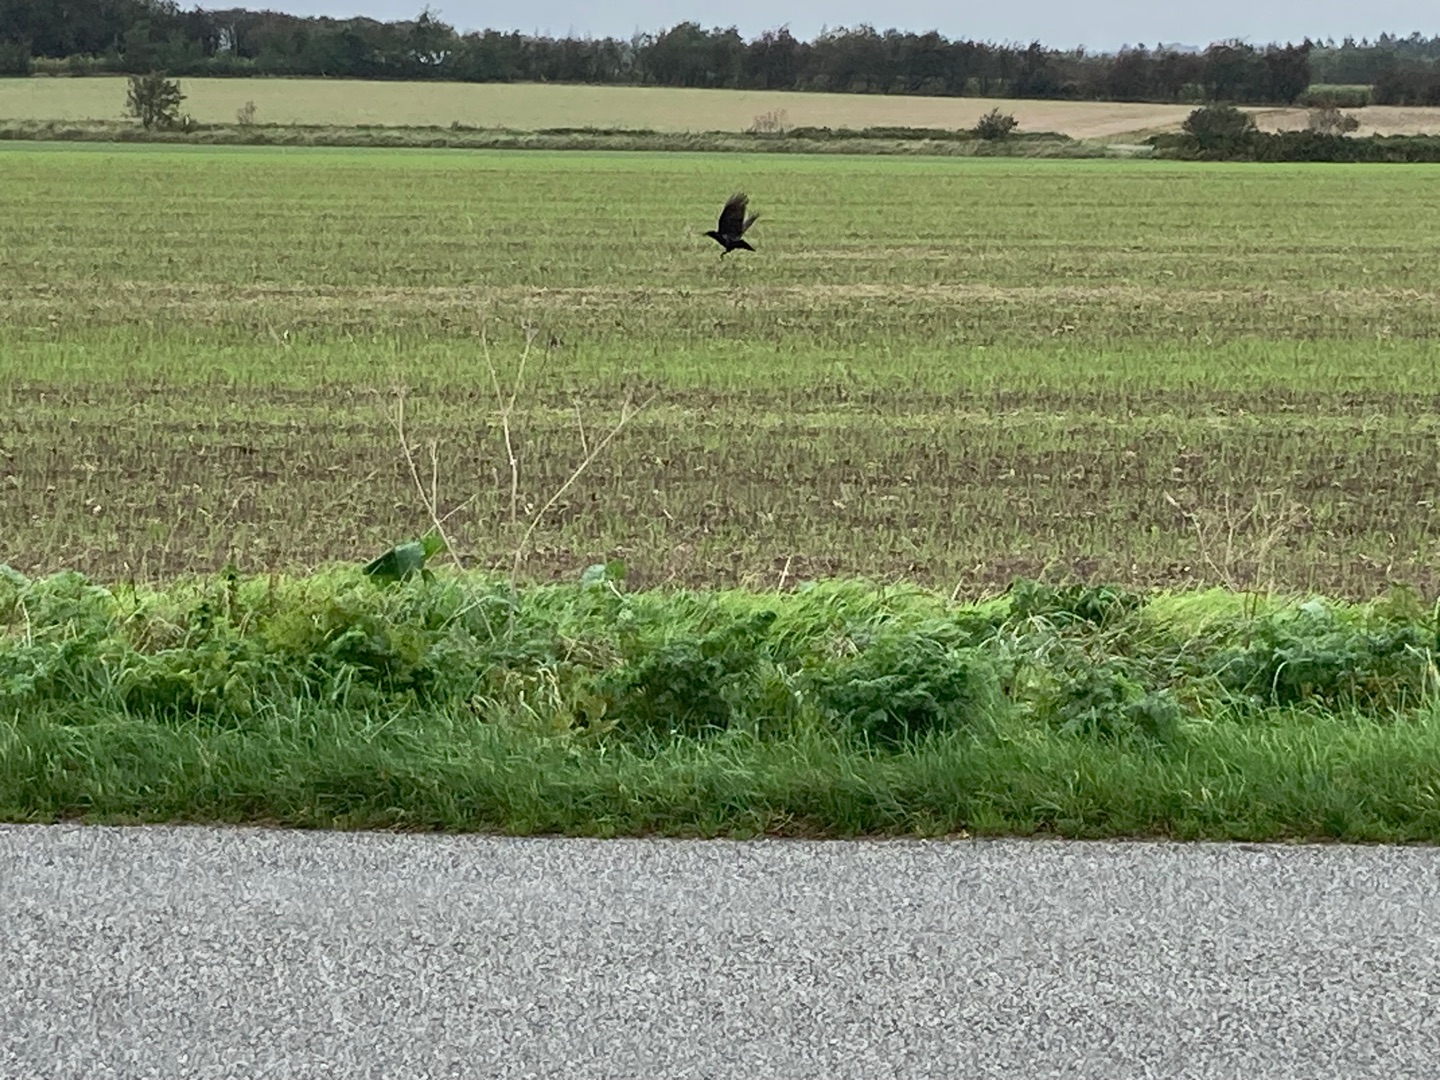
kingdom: Animalia
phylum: Chordata
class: Aves
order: Passeriformes
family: Corvidae
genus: Corvus
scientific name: Corvus corone
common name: Sortkrage
